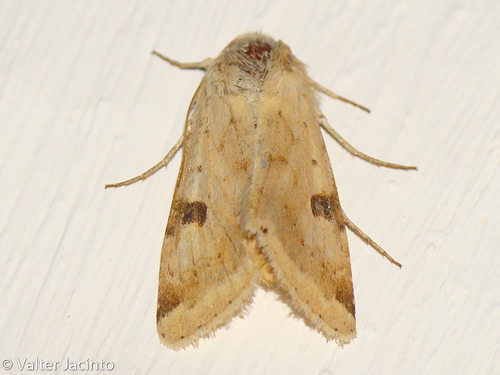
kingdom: Animalia
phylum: Arthropoda
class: Insecta
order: Lepidoptera
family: Noctuidae
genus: Heliothis
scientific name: Heliothis peltigera
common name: Bordered straw
